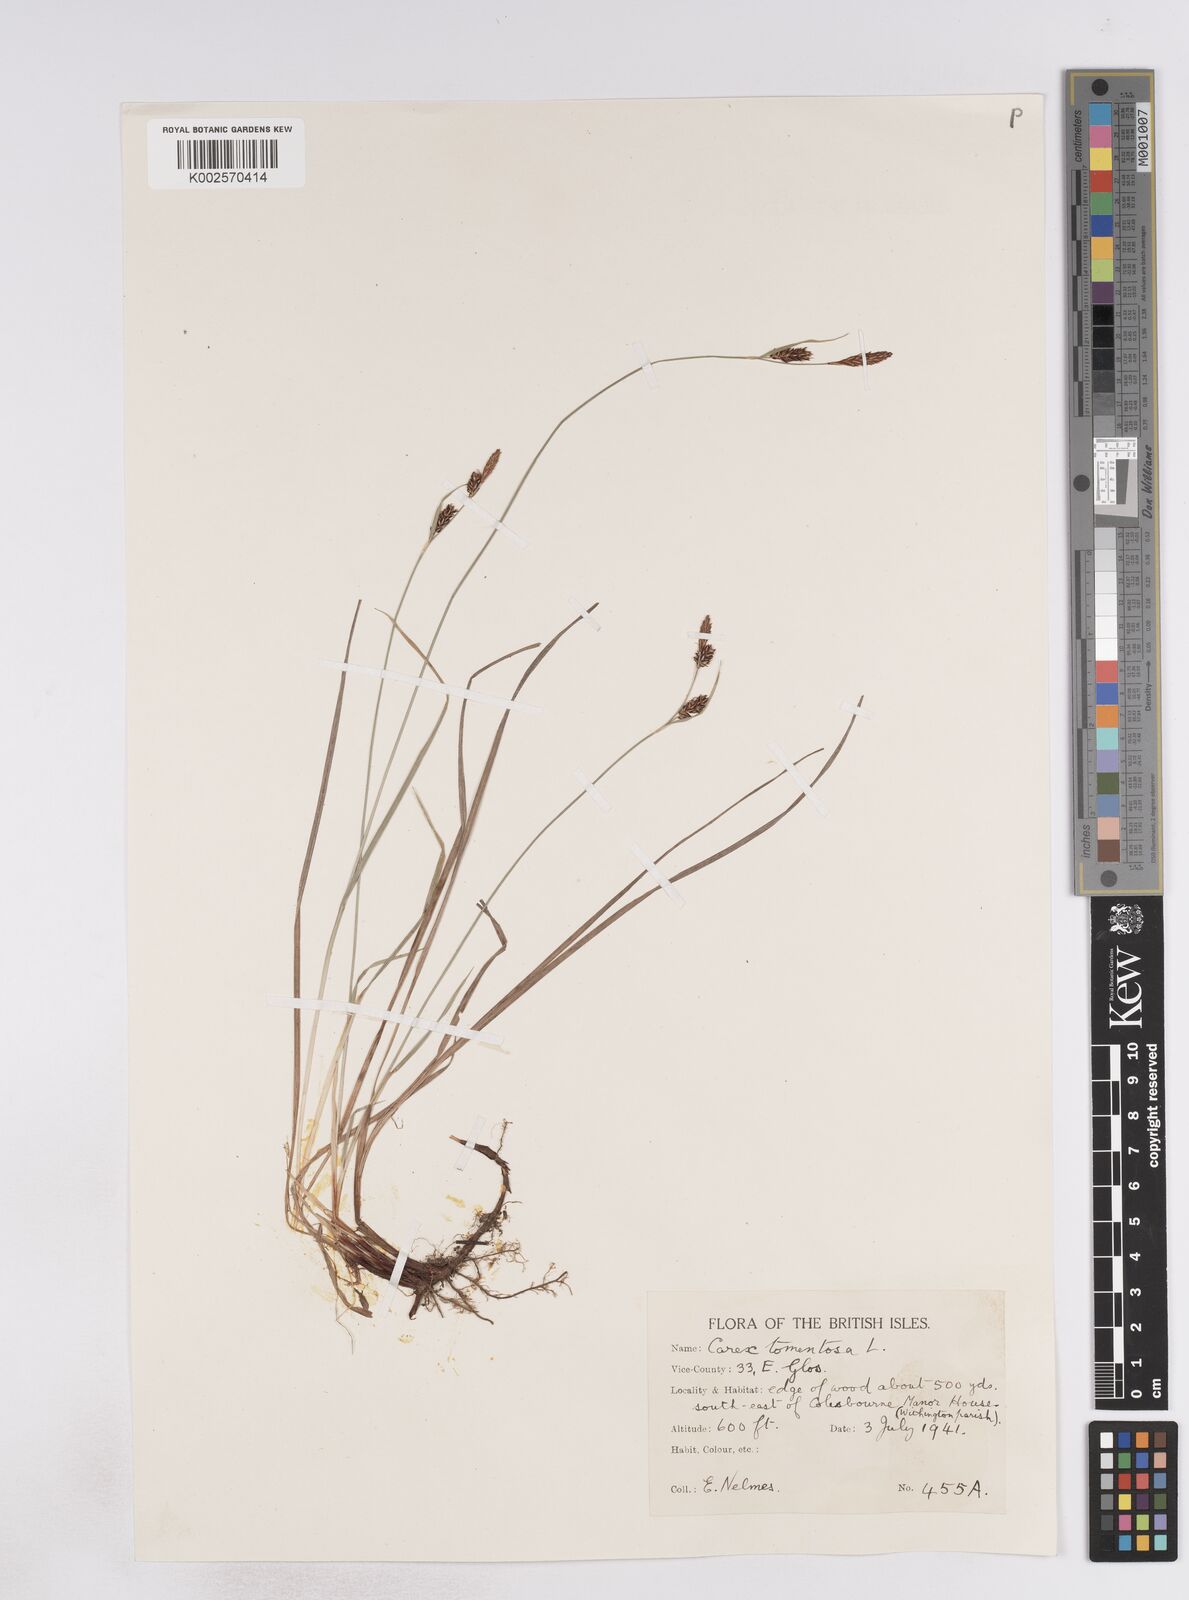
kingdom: Plantae
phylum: Tracheophyta
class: Liliopsida
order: Poales
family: Cyperaceae
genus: Carex
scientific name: Carex montana
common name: Soft-leaved sedge
